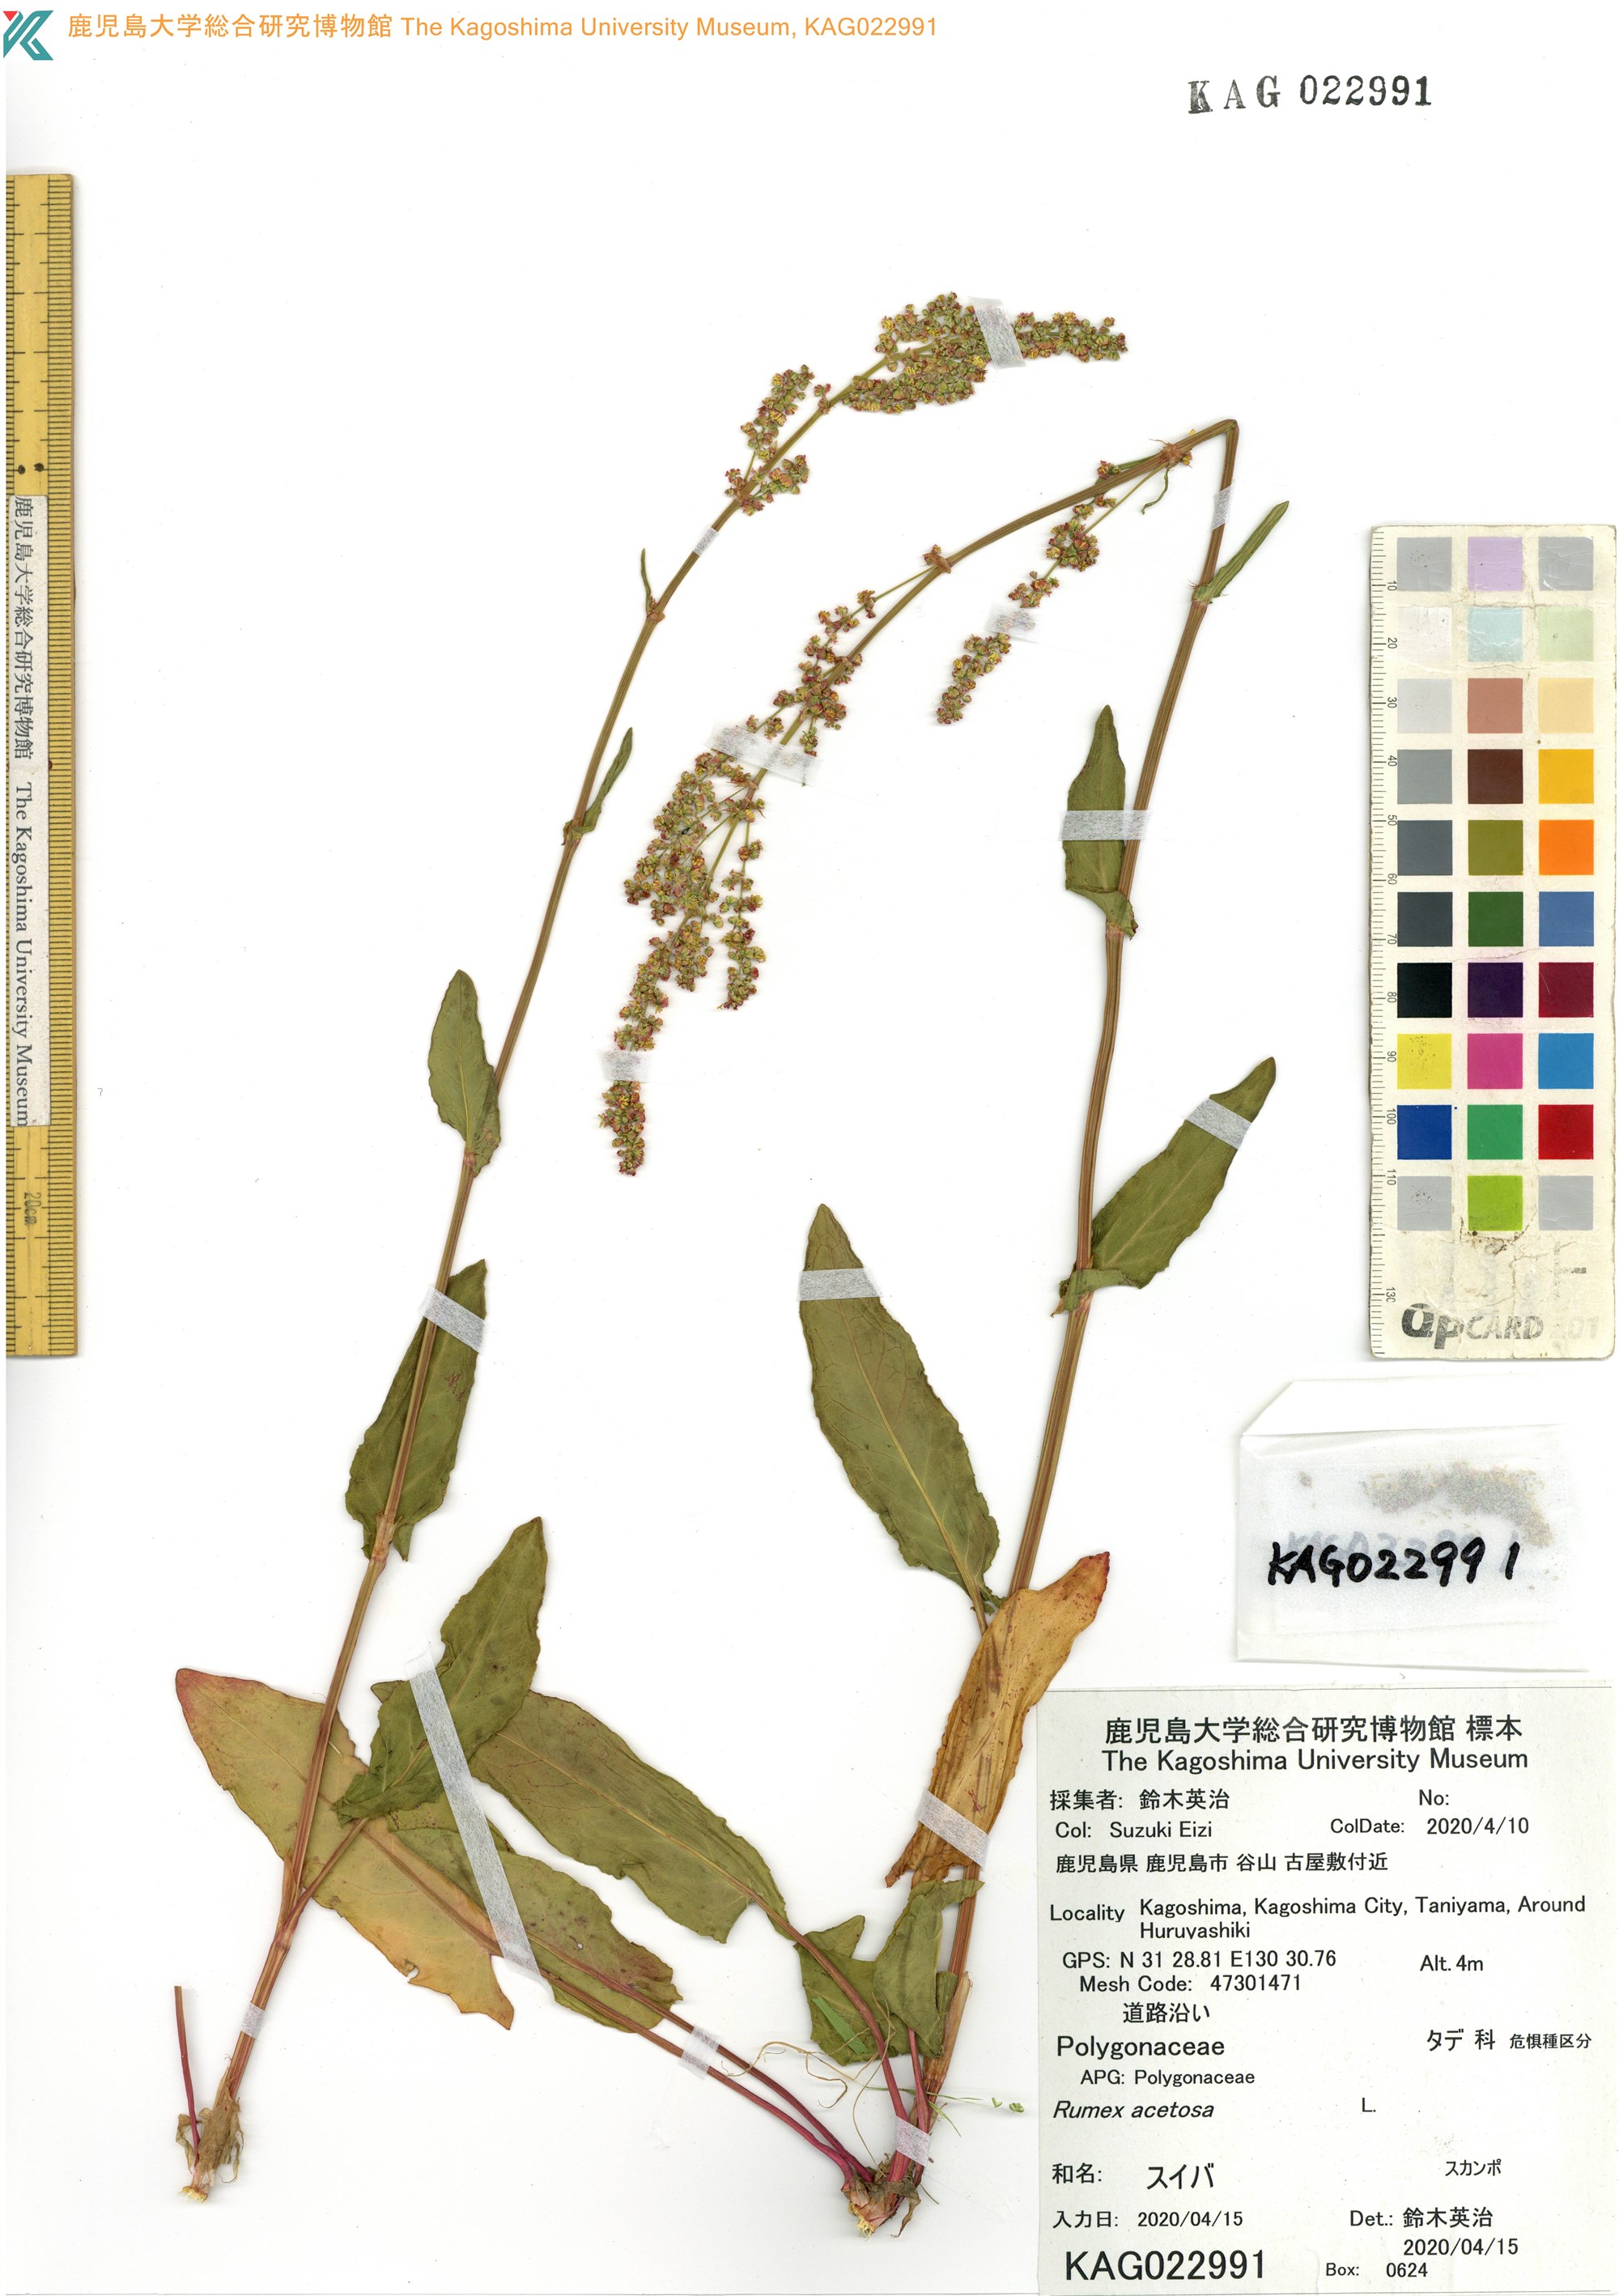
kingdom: Plantae
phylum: Tracheophyta
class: Magnoliopsida
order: Caryophyllales
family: Polygonaceae
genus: Rumex
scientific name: Rumex acetosa
